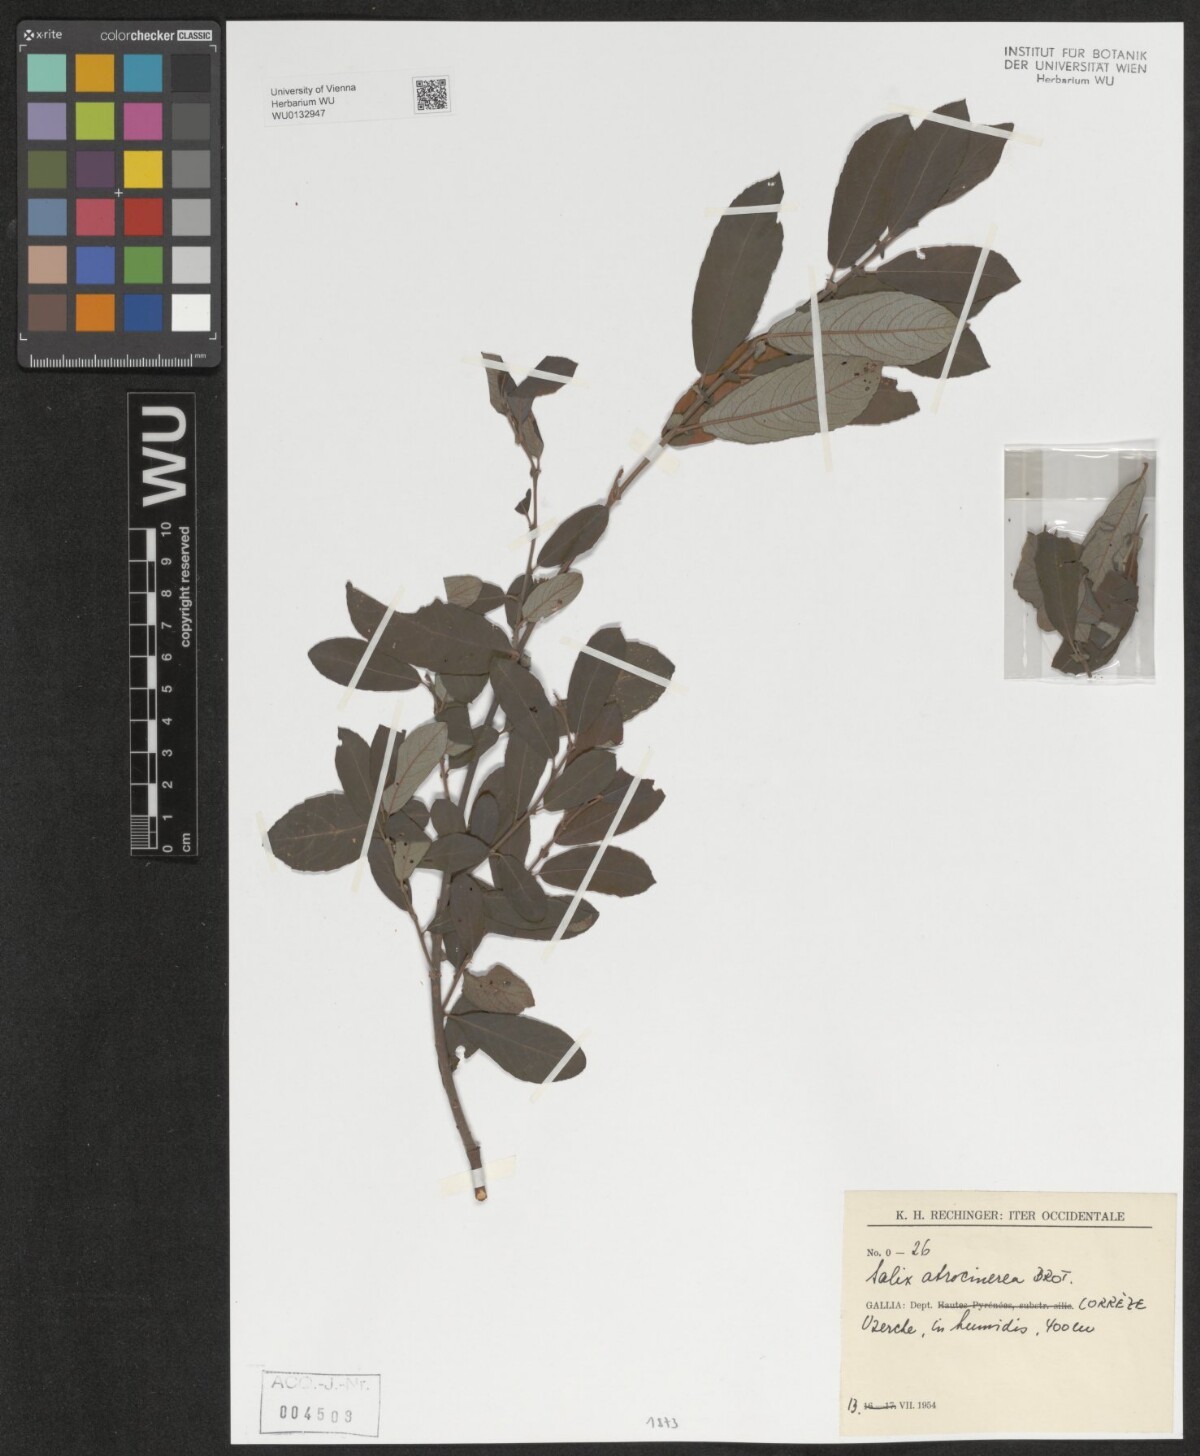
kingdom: Plantae
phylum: Tracheophyta
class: Magnoliopsida
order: Malpighiales
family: Salicaceae
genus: Salix
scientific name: Salix atrocinerea
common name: Rusty willow
